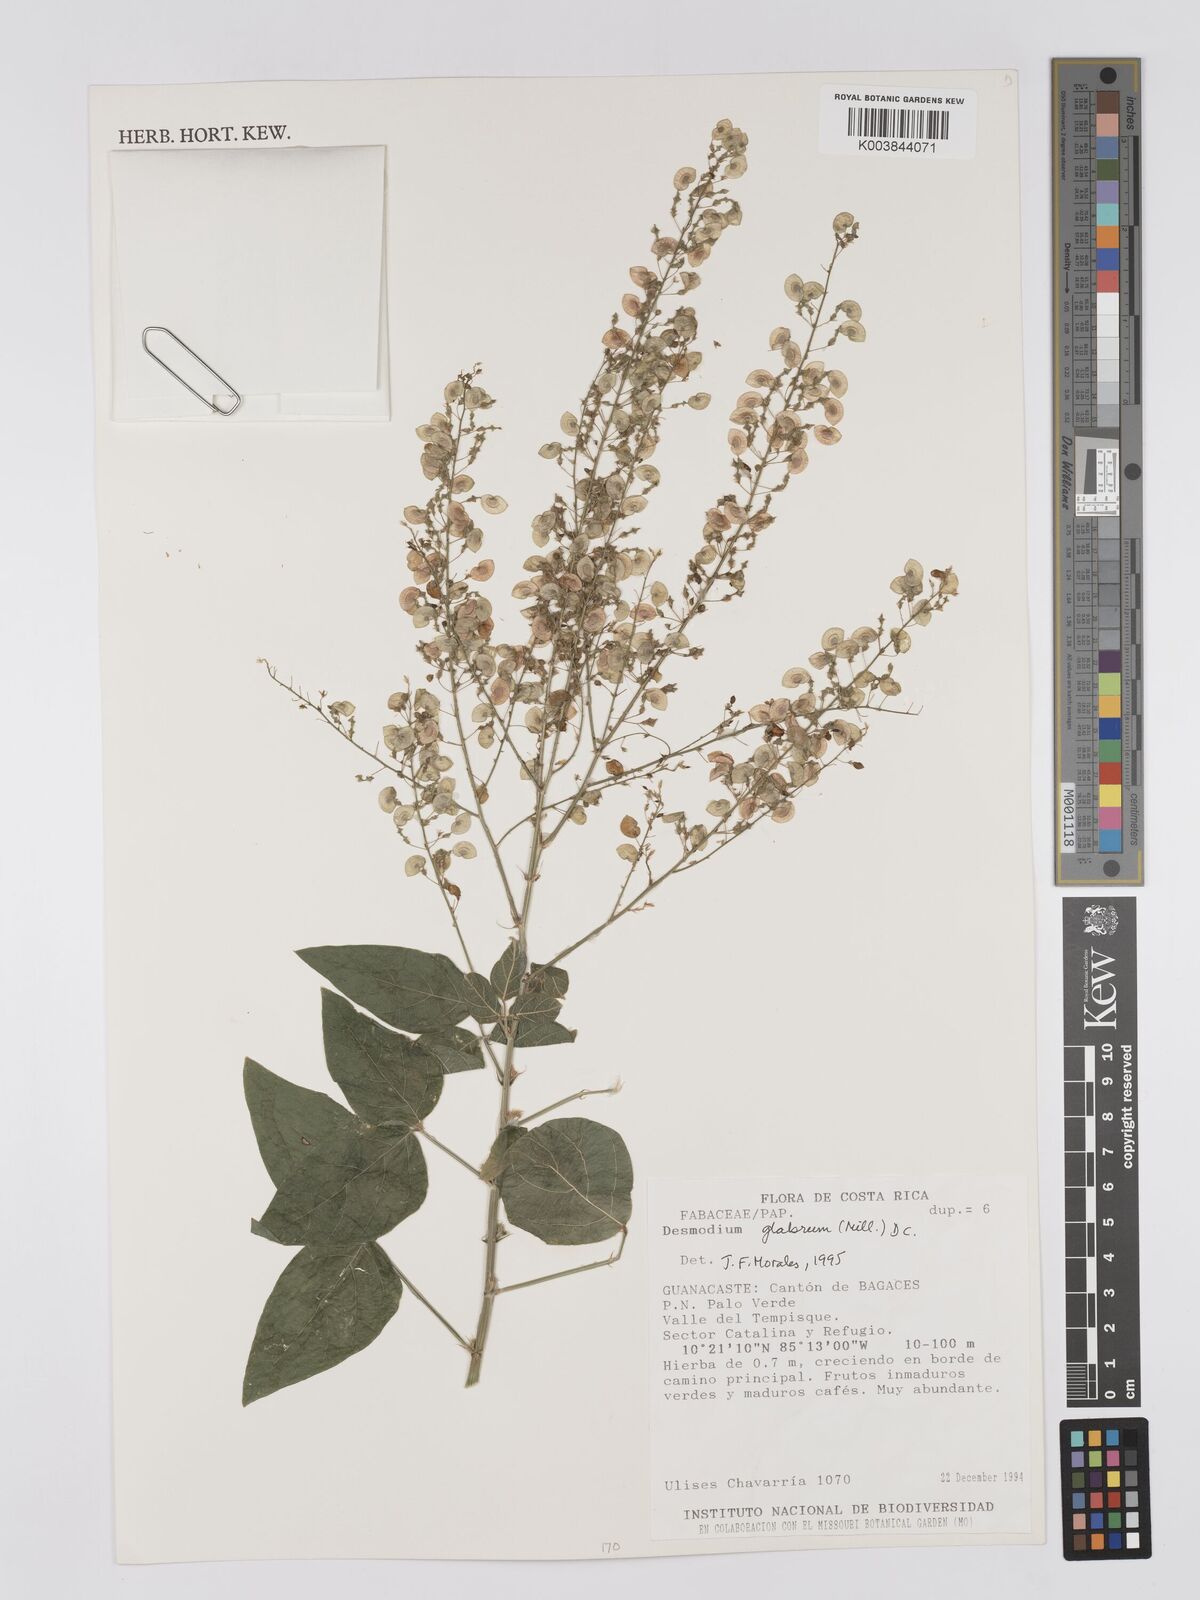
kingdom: Plantae
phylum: Tracheophyta
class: Magnoliopsida
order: Fabales
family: Fabaceae
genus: Desmodium
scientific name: Desmodium glabrum
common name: Zarzabacoa dulce
